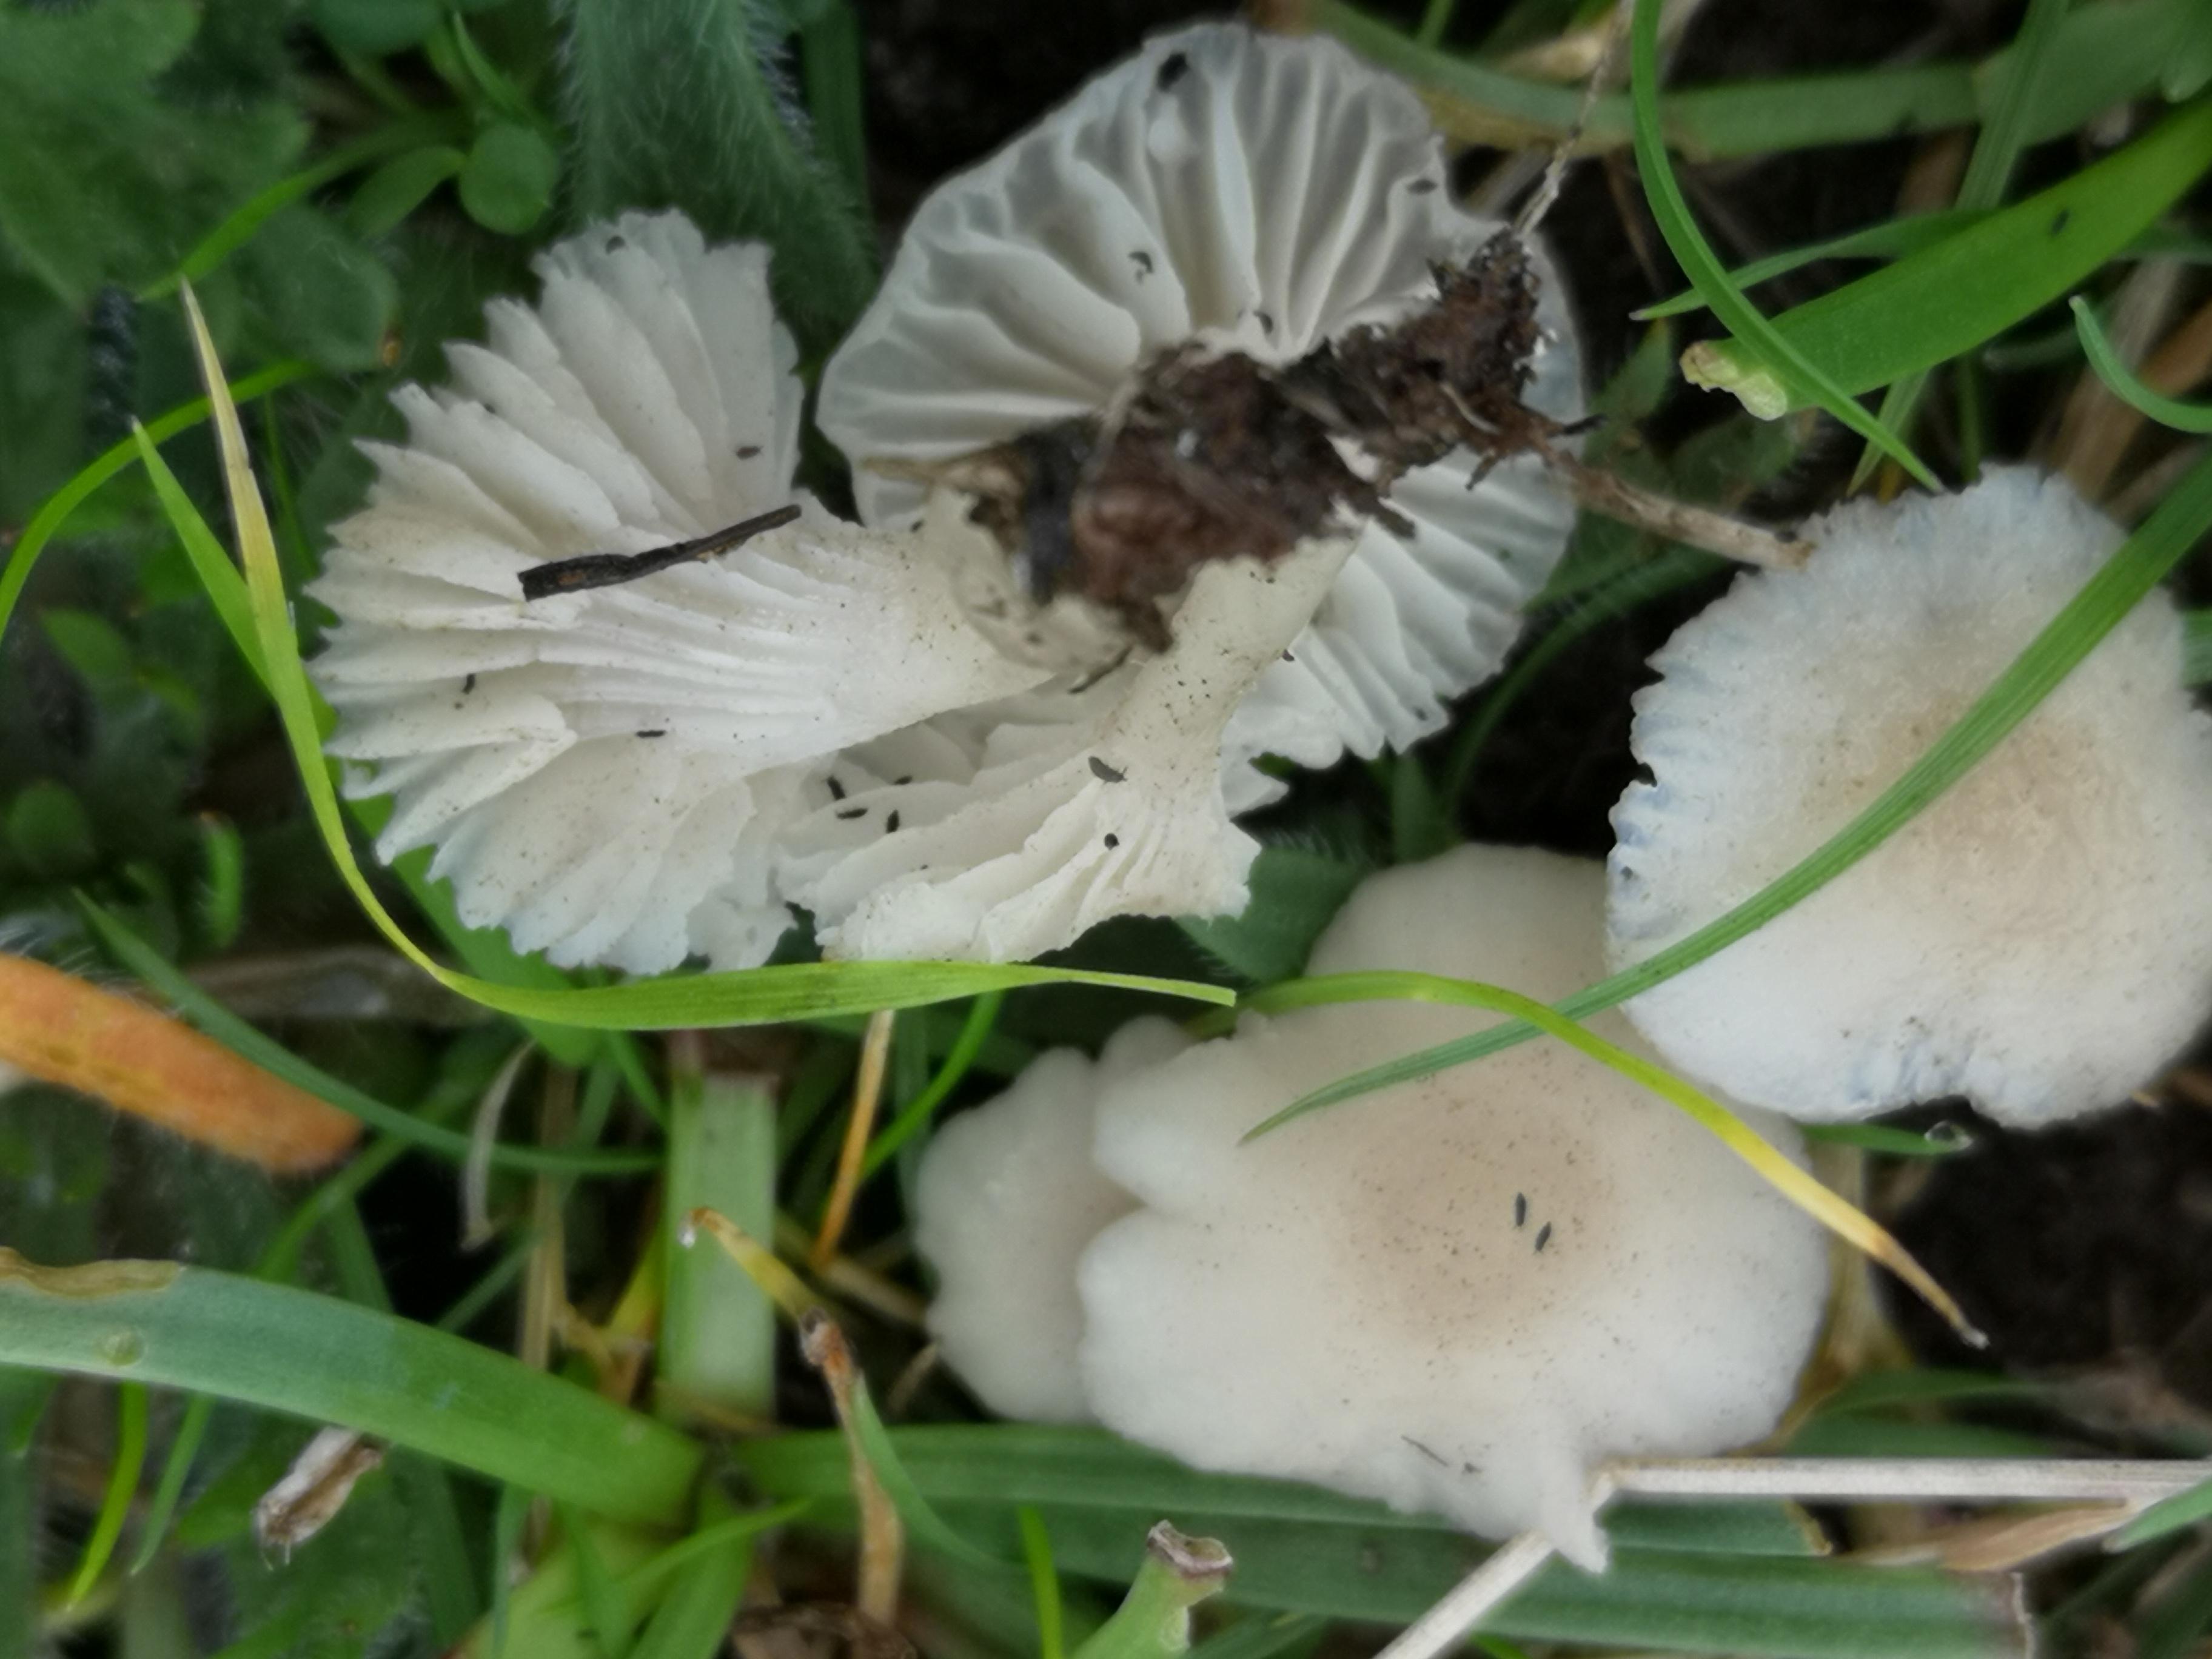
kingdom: Fungi
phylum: Basidiomycota
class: Agaricomycetes
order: Agaricales
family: Hygrophoraceae
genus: Cuphophyllus
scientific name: Cuphophyllus
